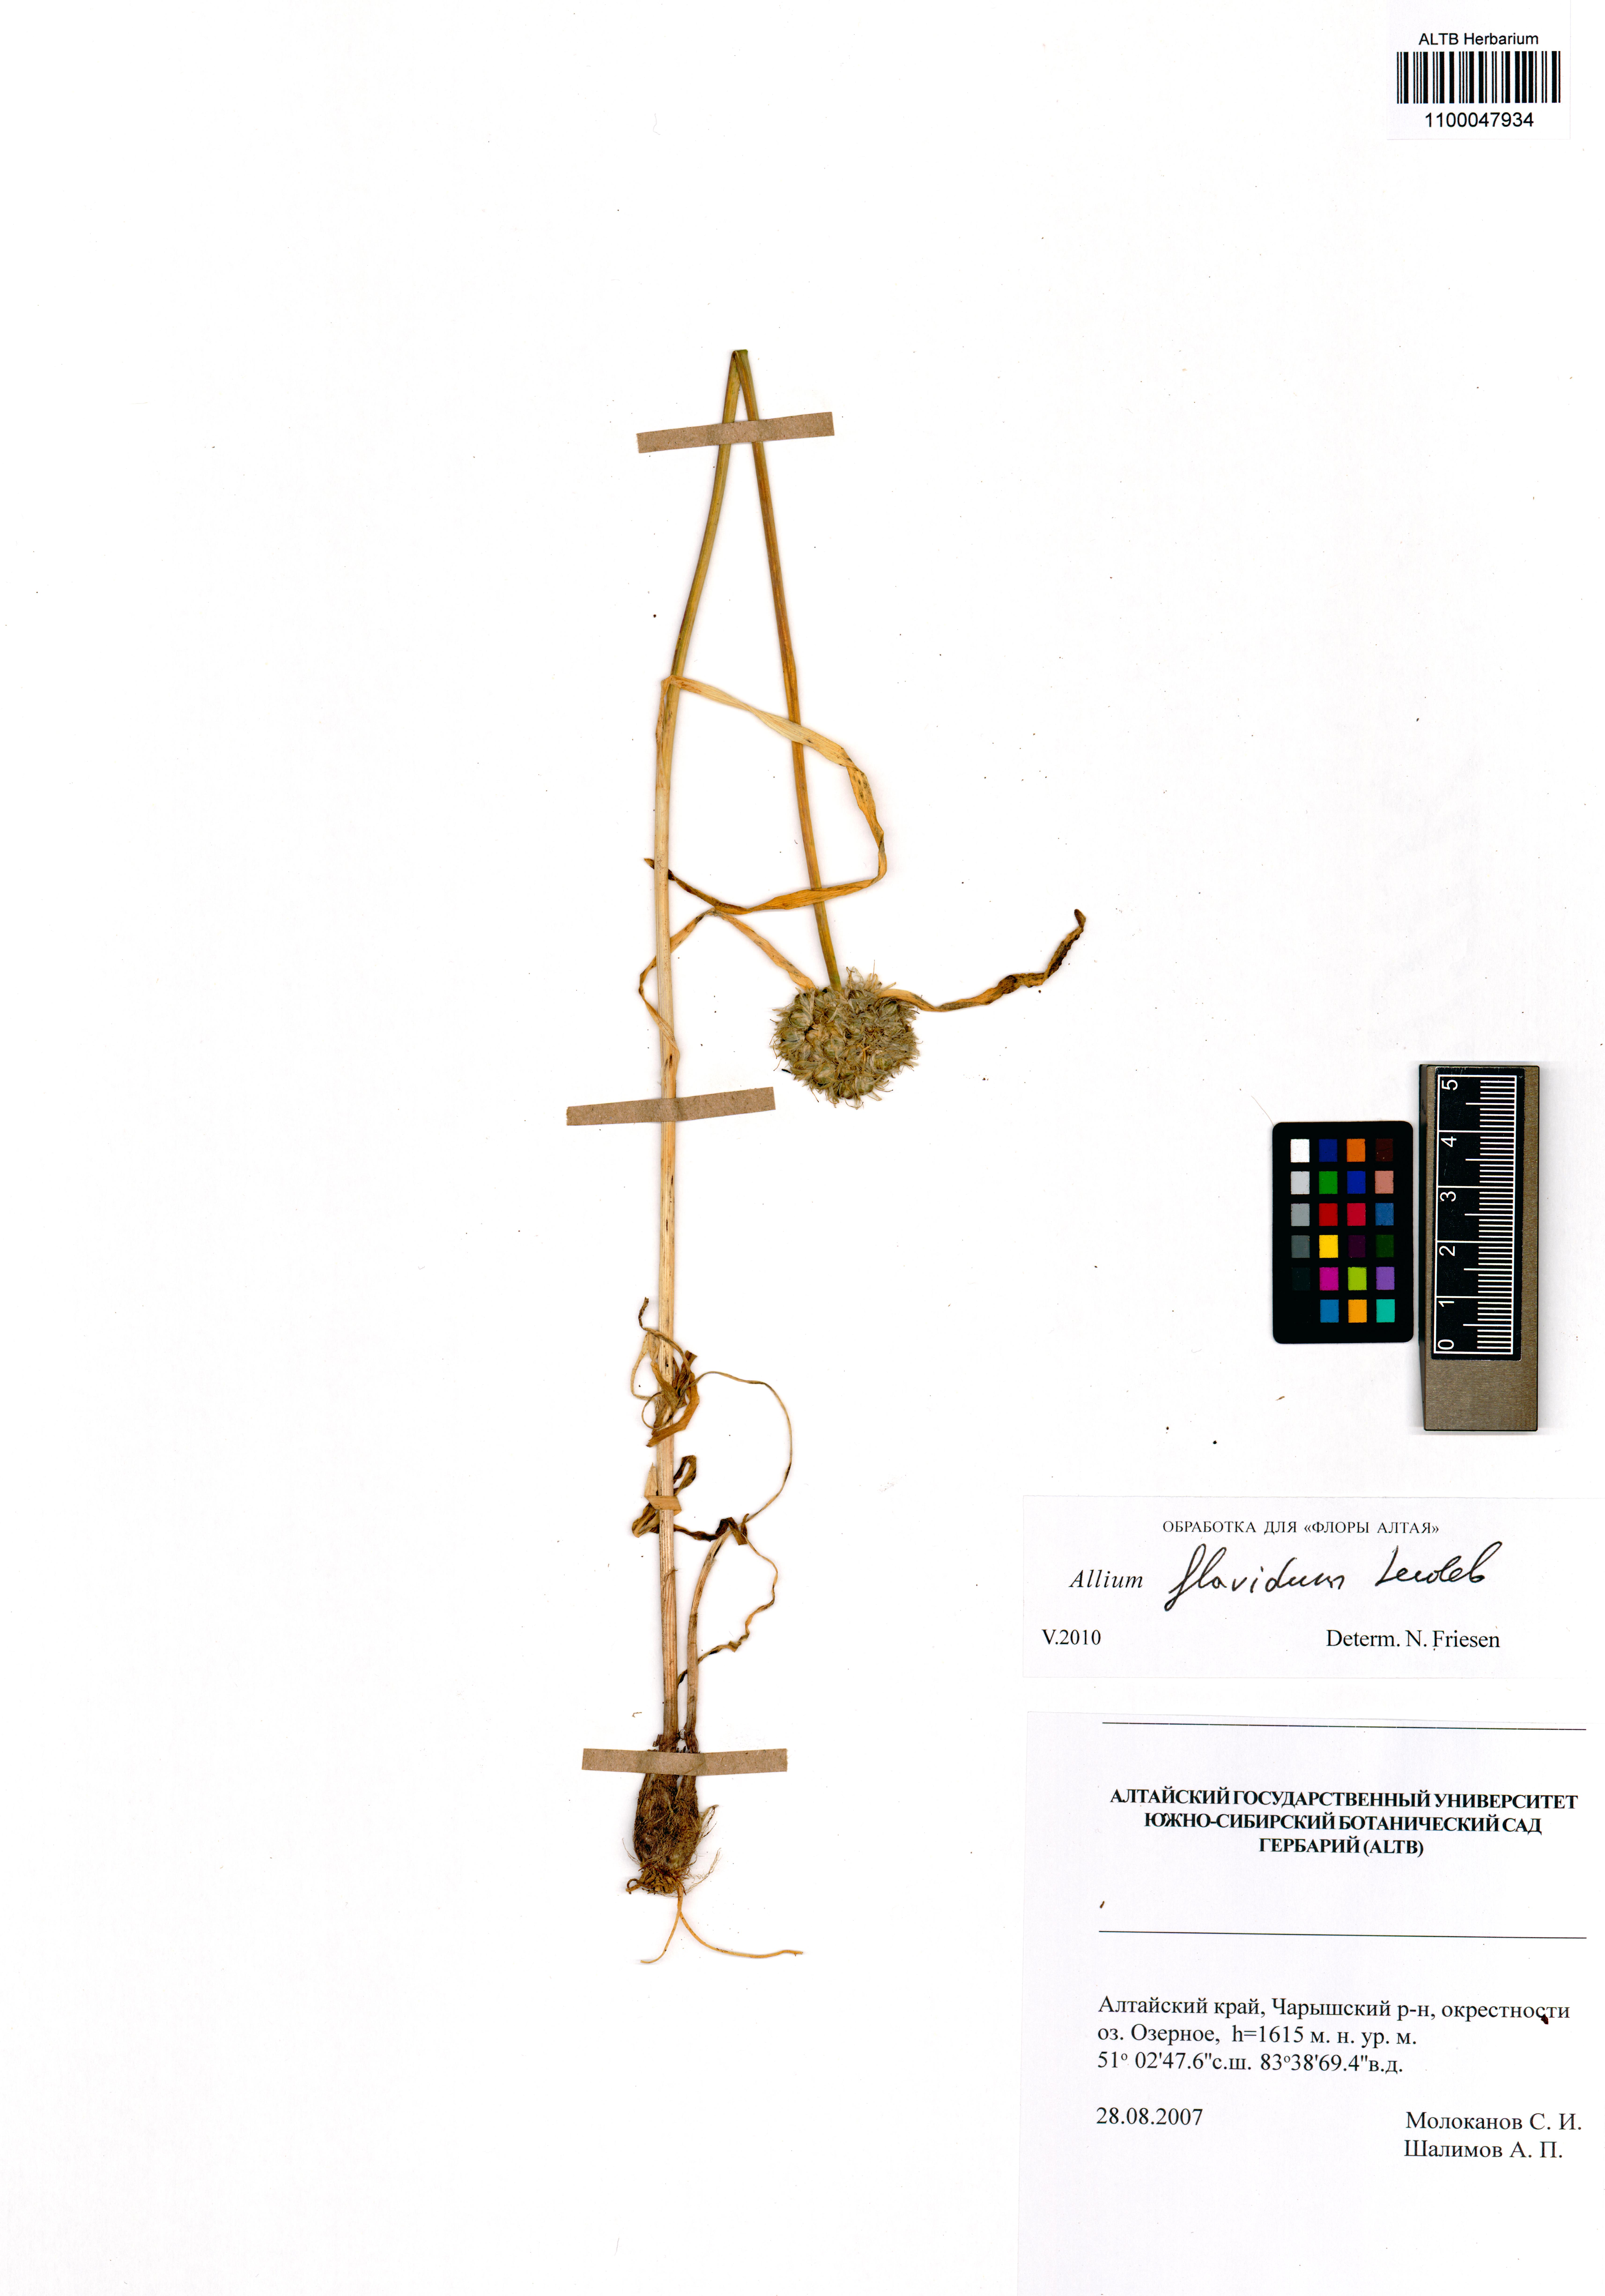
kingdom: Plantae
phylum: Tracheophyta
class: Liliopsida
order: Asparagales
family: Amaryllidaceae
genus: Allium
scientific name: Allium flavidum
